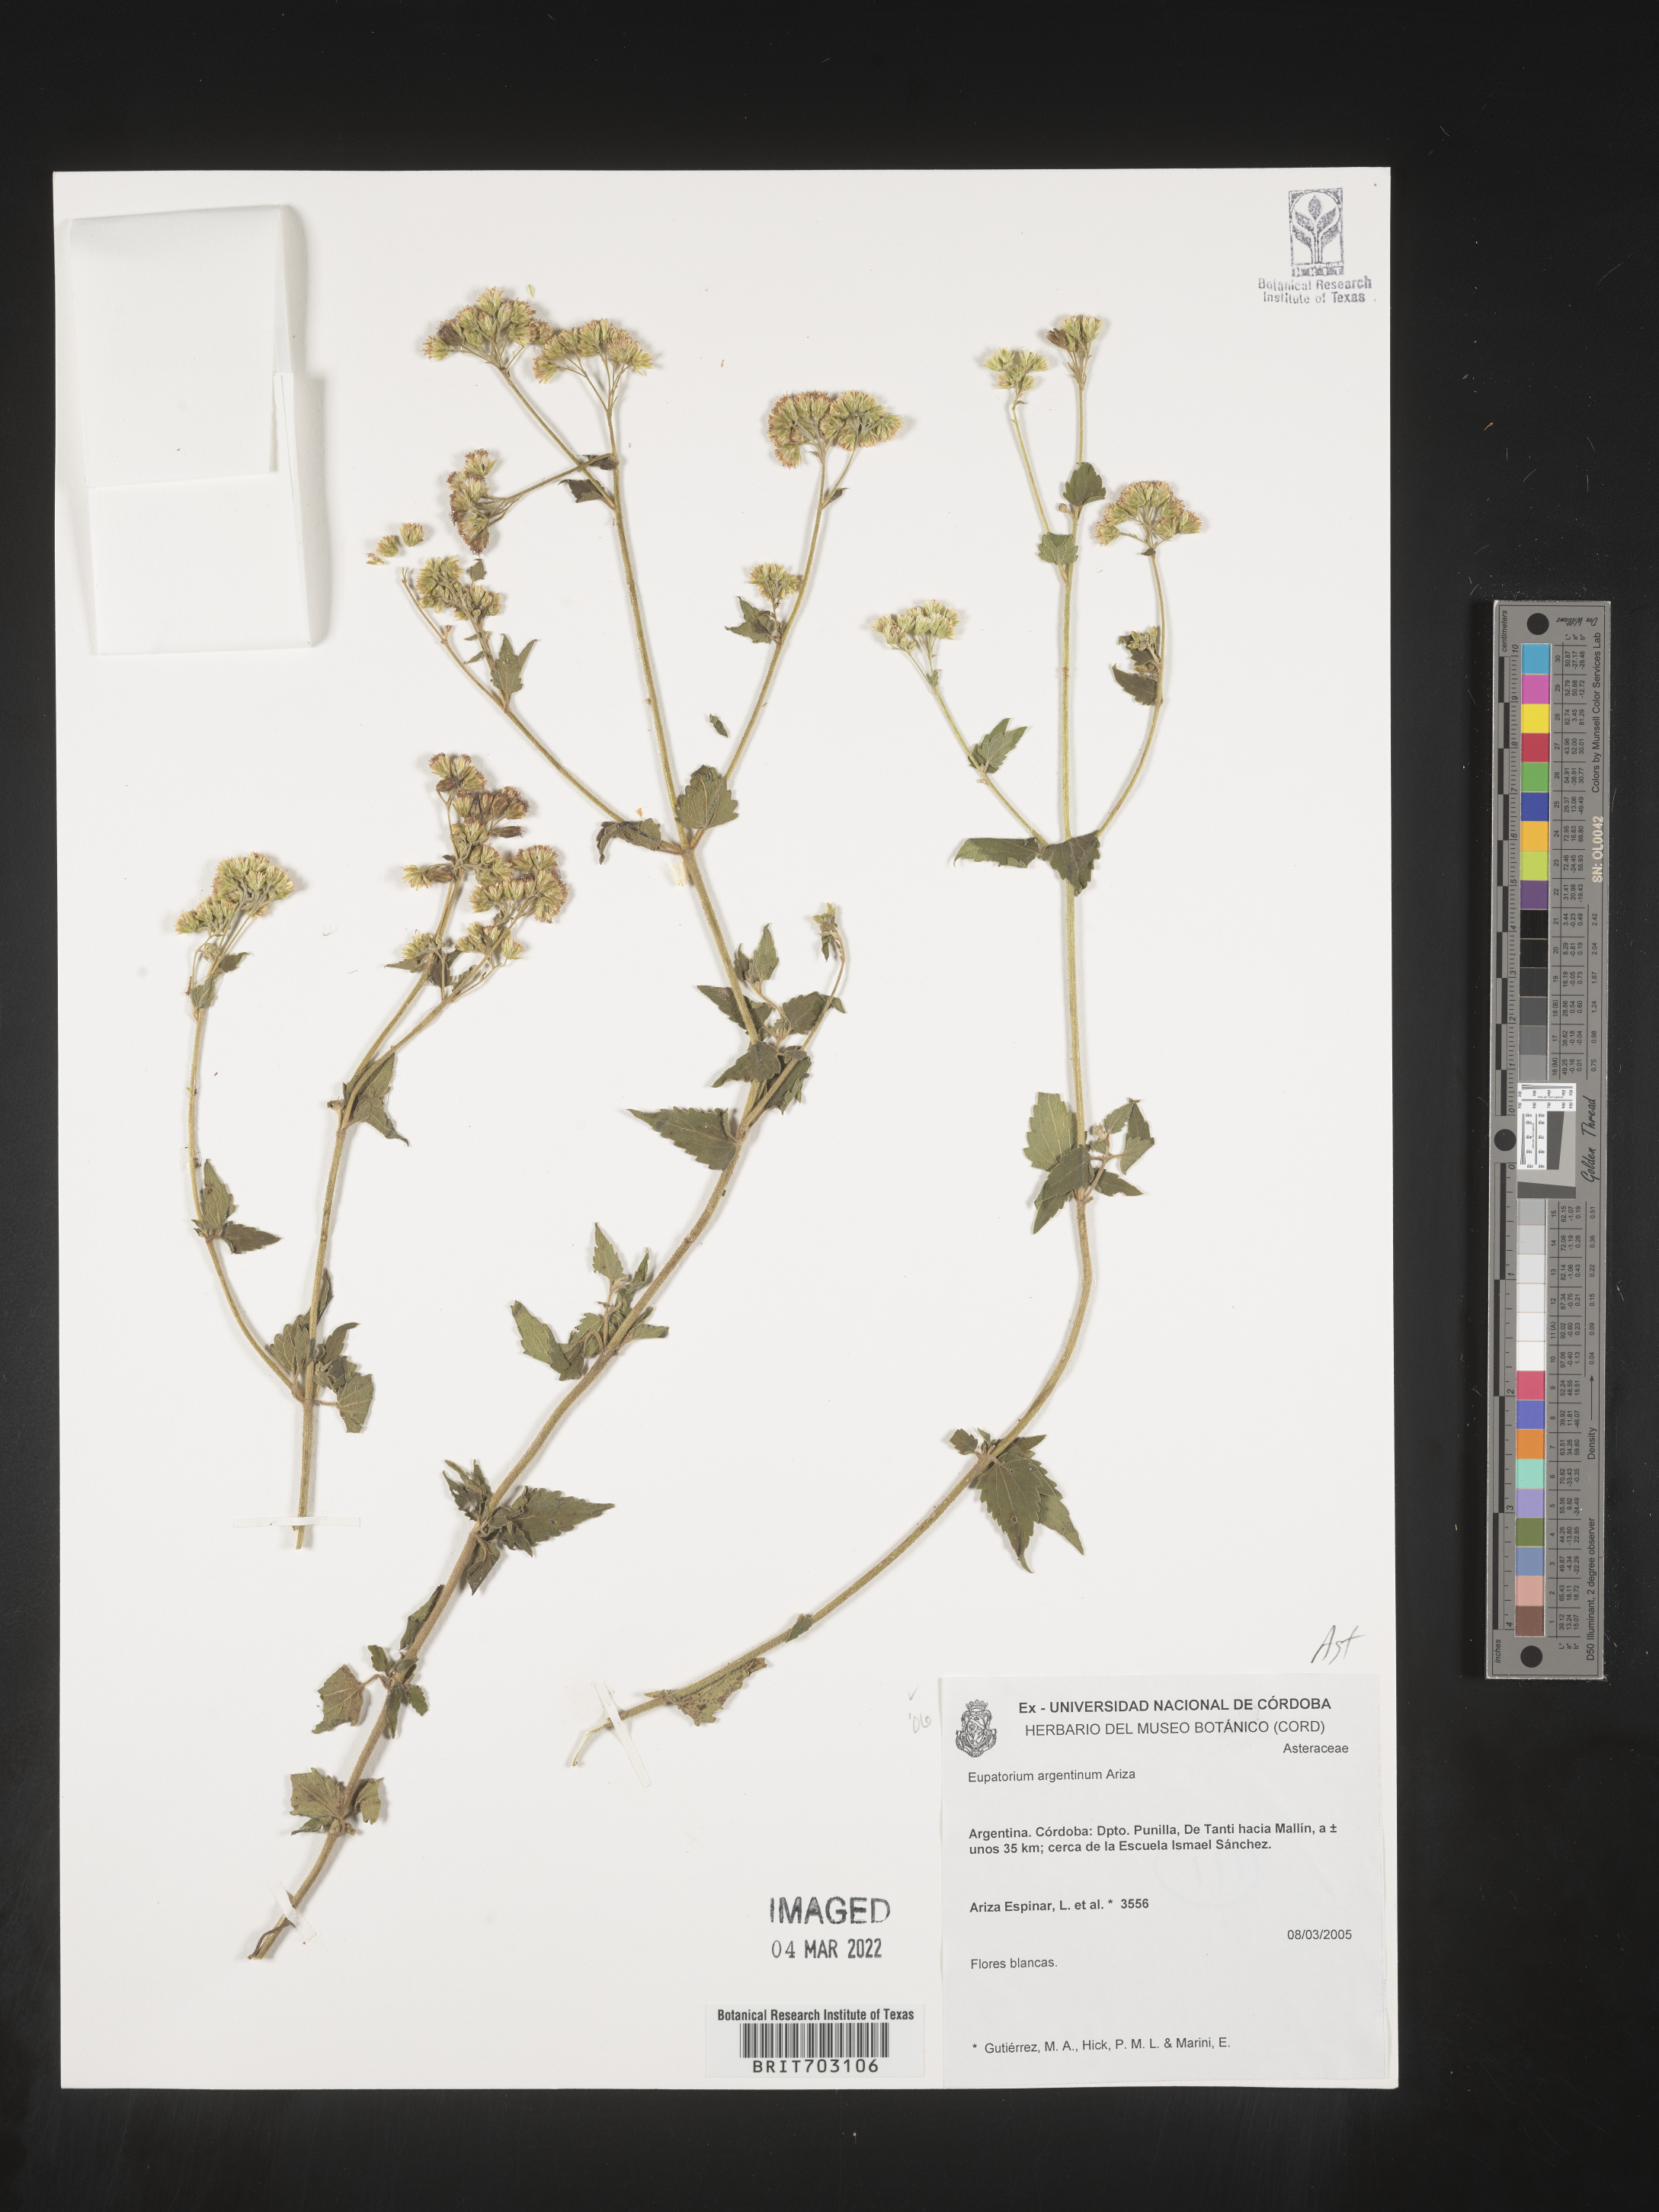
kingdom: Plantae
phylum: Tracheophyta
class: Magnoliopsida
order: Asterales
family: Asteraceae
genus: Eupatorium
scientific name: Eupatorium
